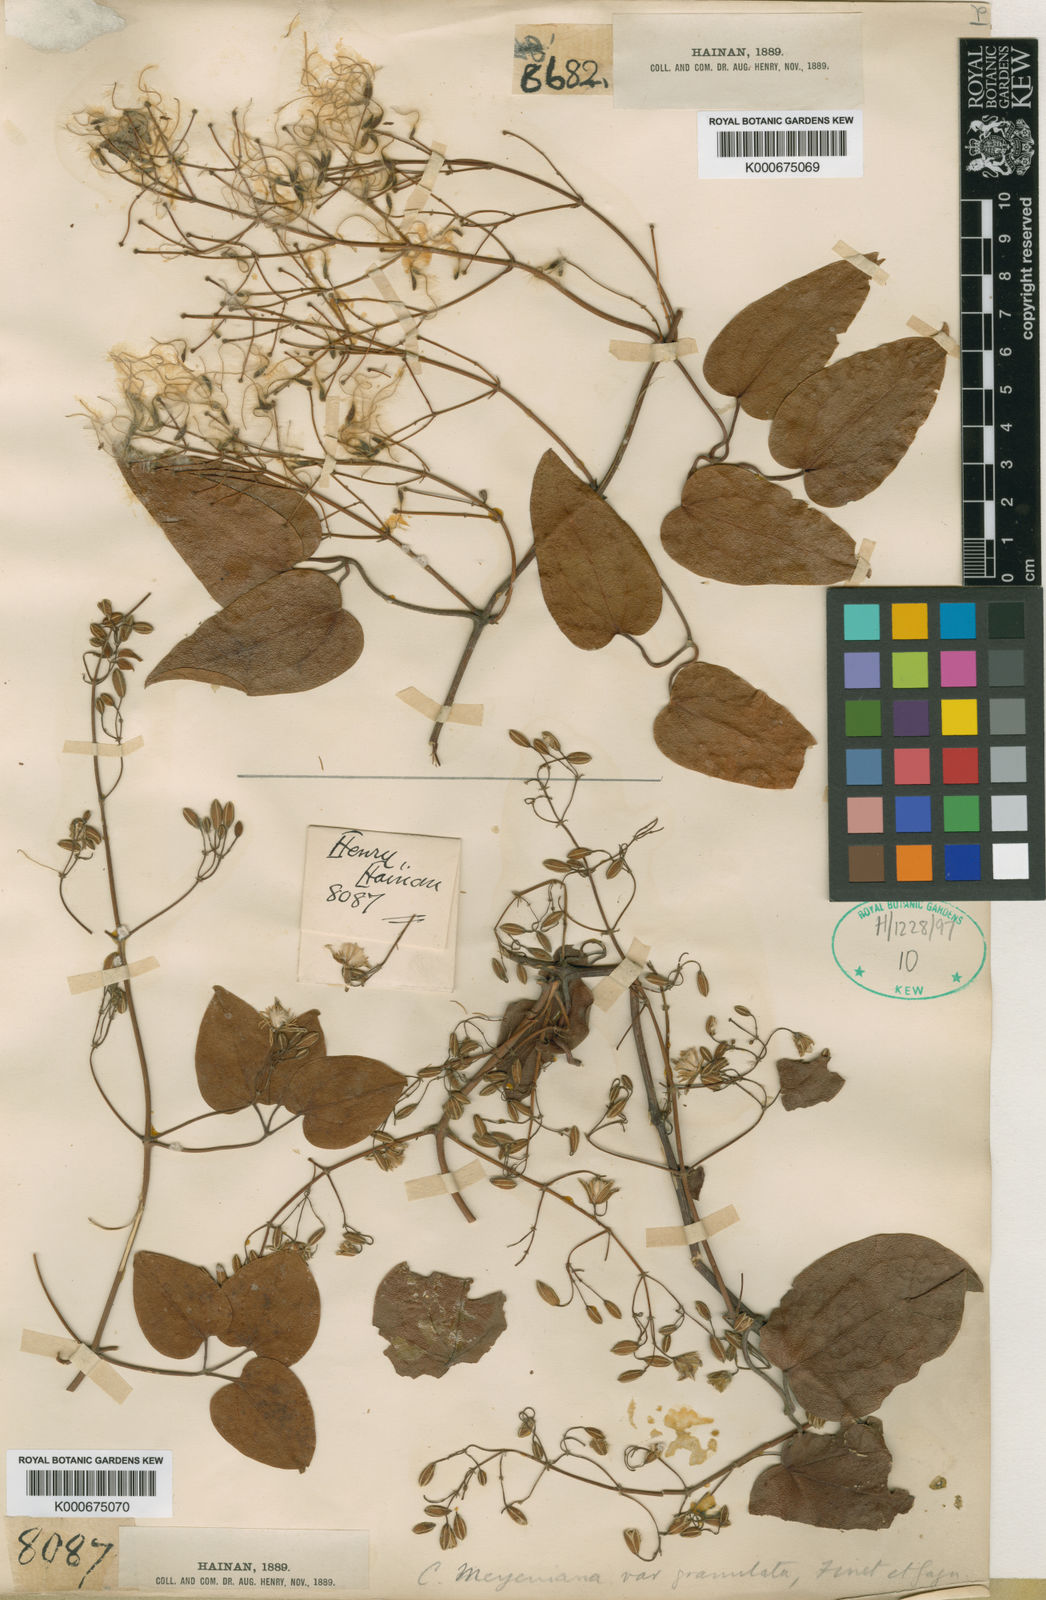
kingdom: Plantae
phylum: Tracheophyta
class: Magnoliopsida
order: Ranunculales
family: Ranunculaceae
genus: Clematis
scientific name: Clematis meyeniana
